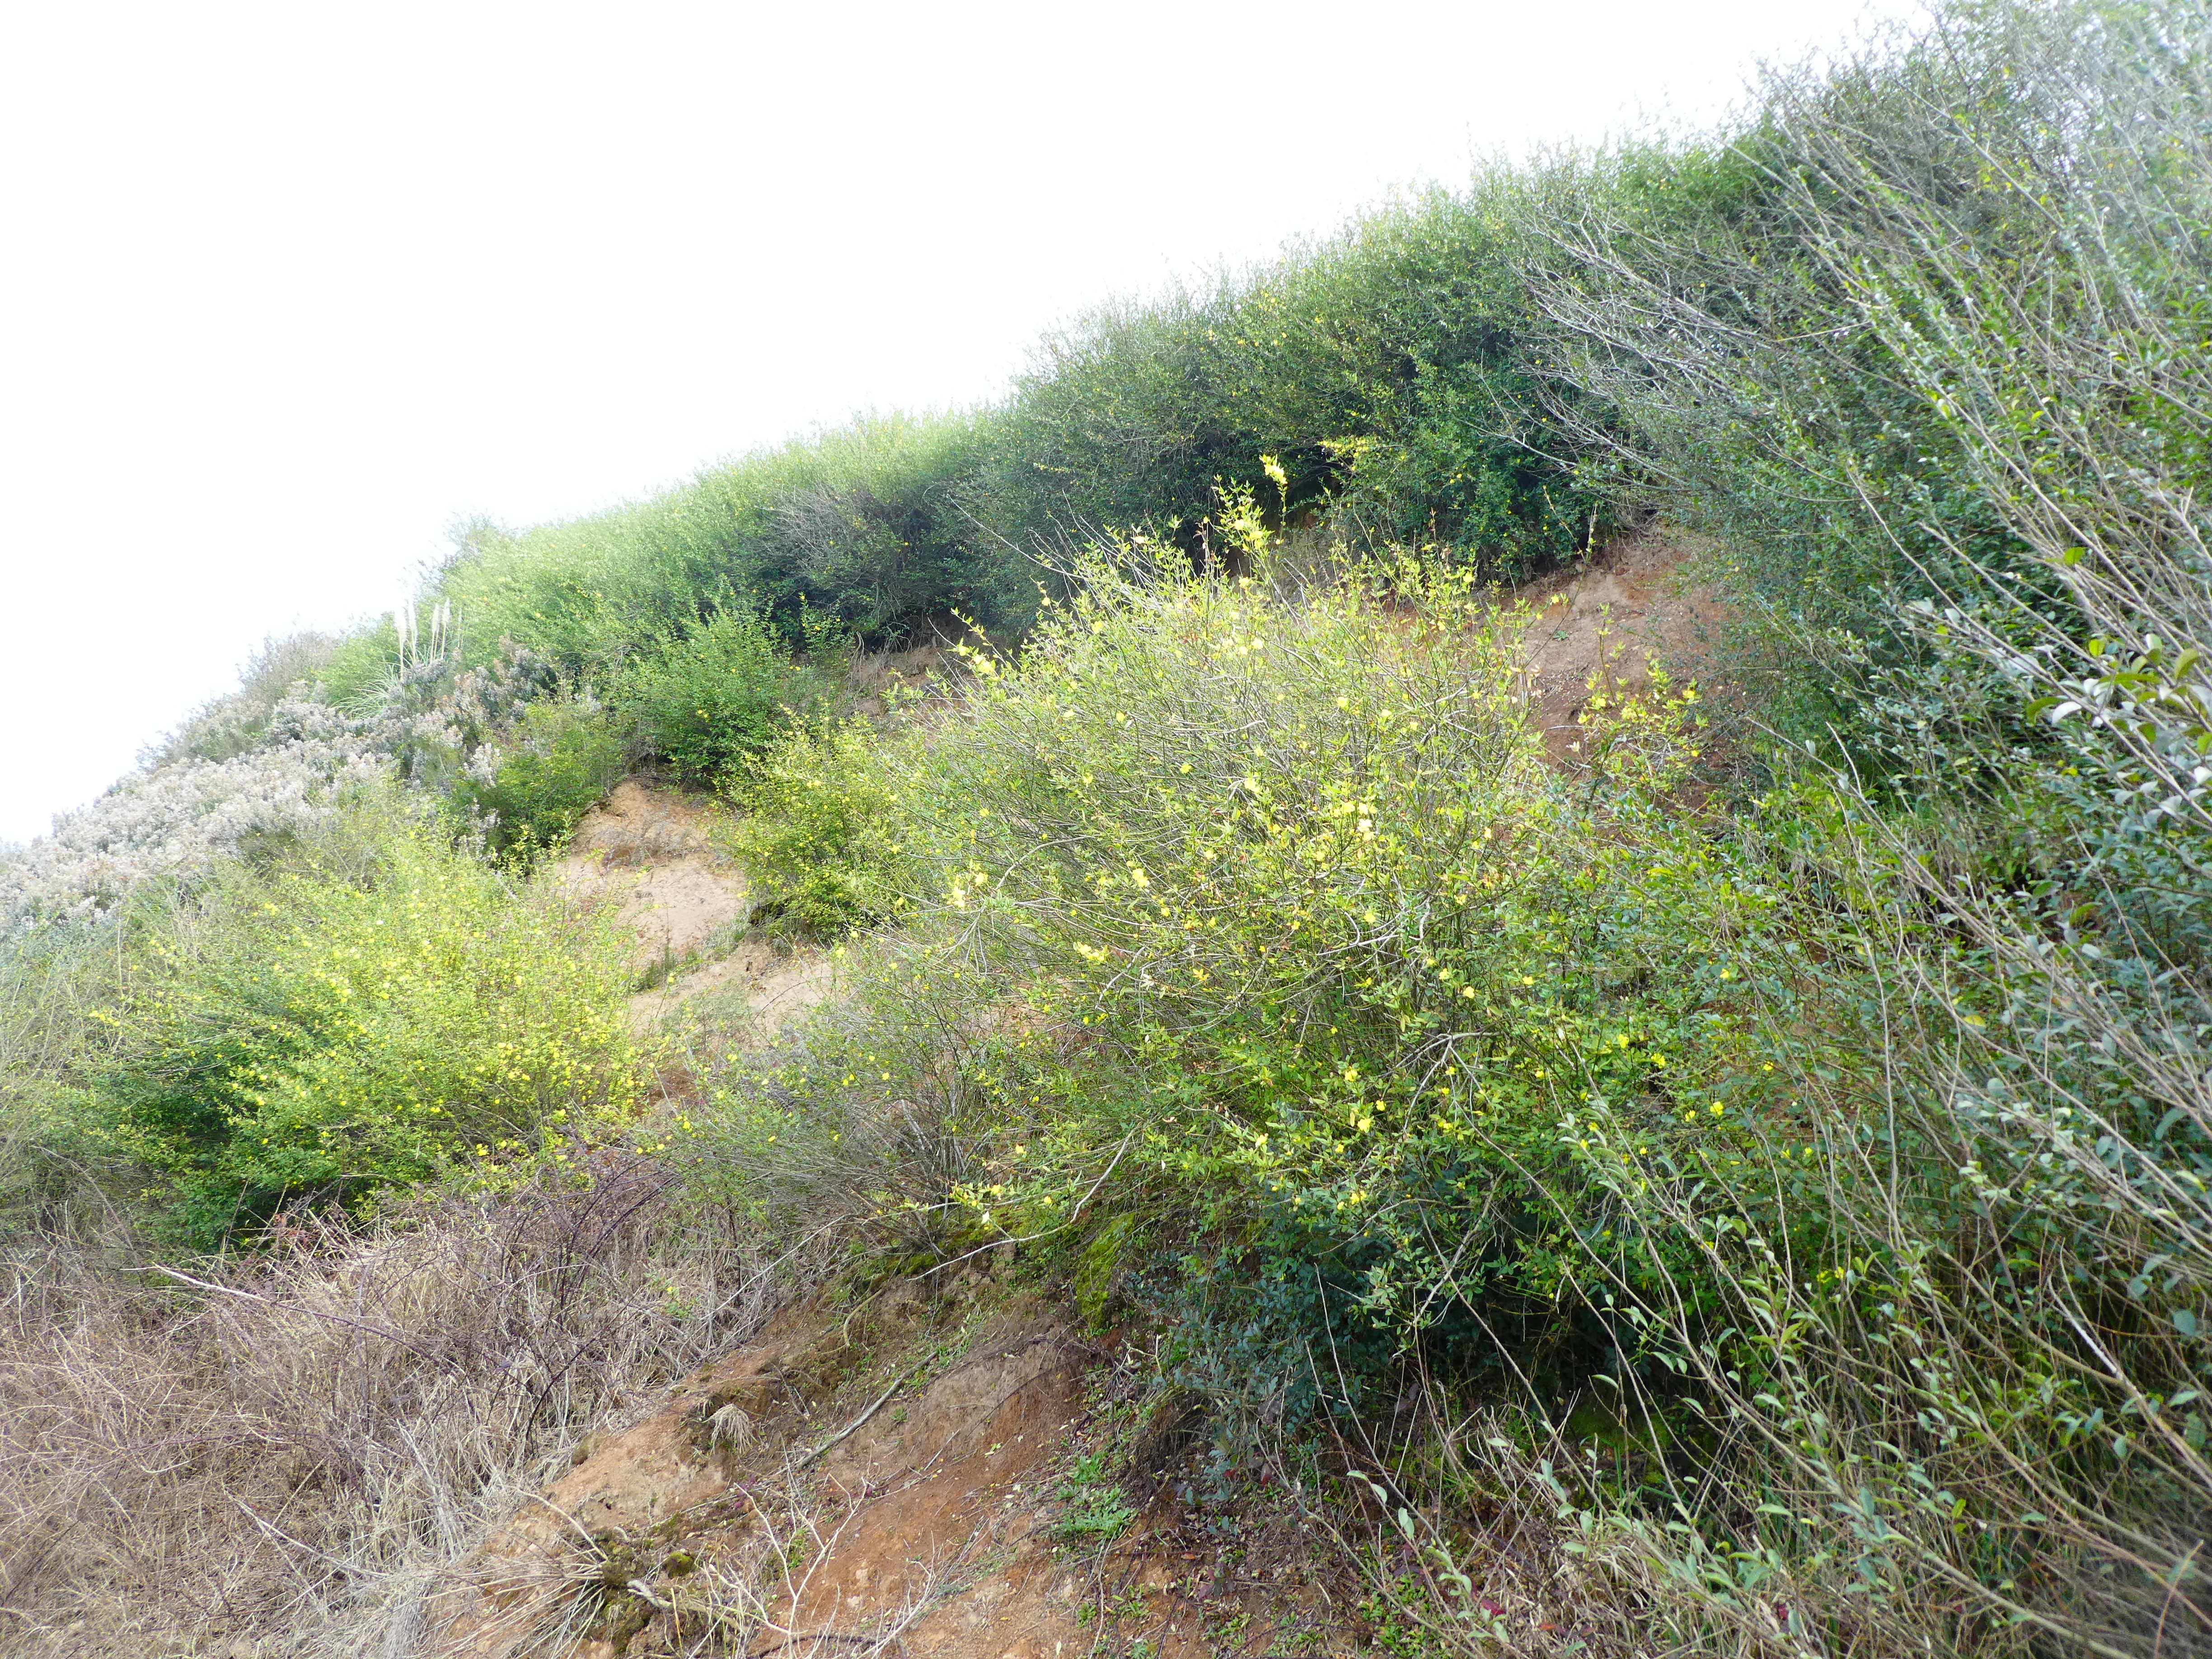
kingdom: Plantae
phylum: Tracheophyta
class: Magnoliopsida
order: Lamiales
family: Oleaceae
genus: Jasminum
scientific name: Jasminum mesnyi
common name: Japanese jasmine
